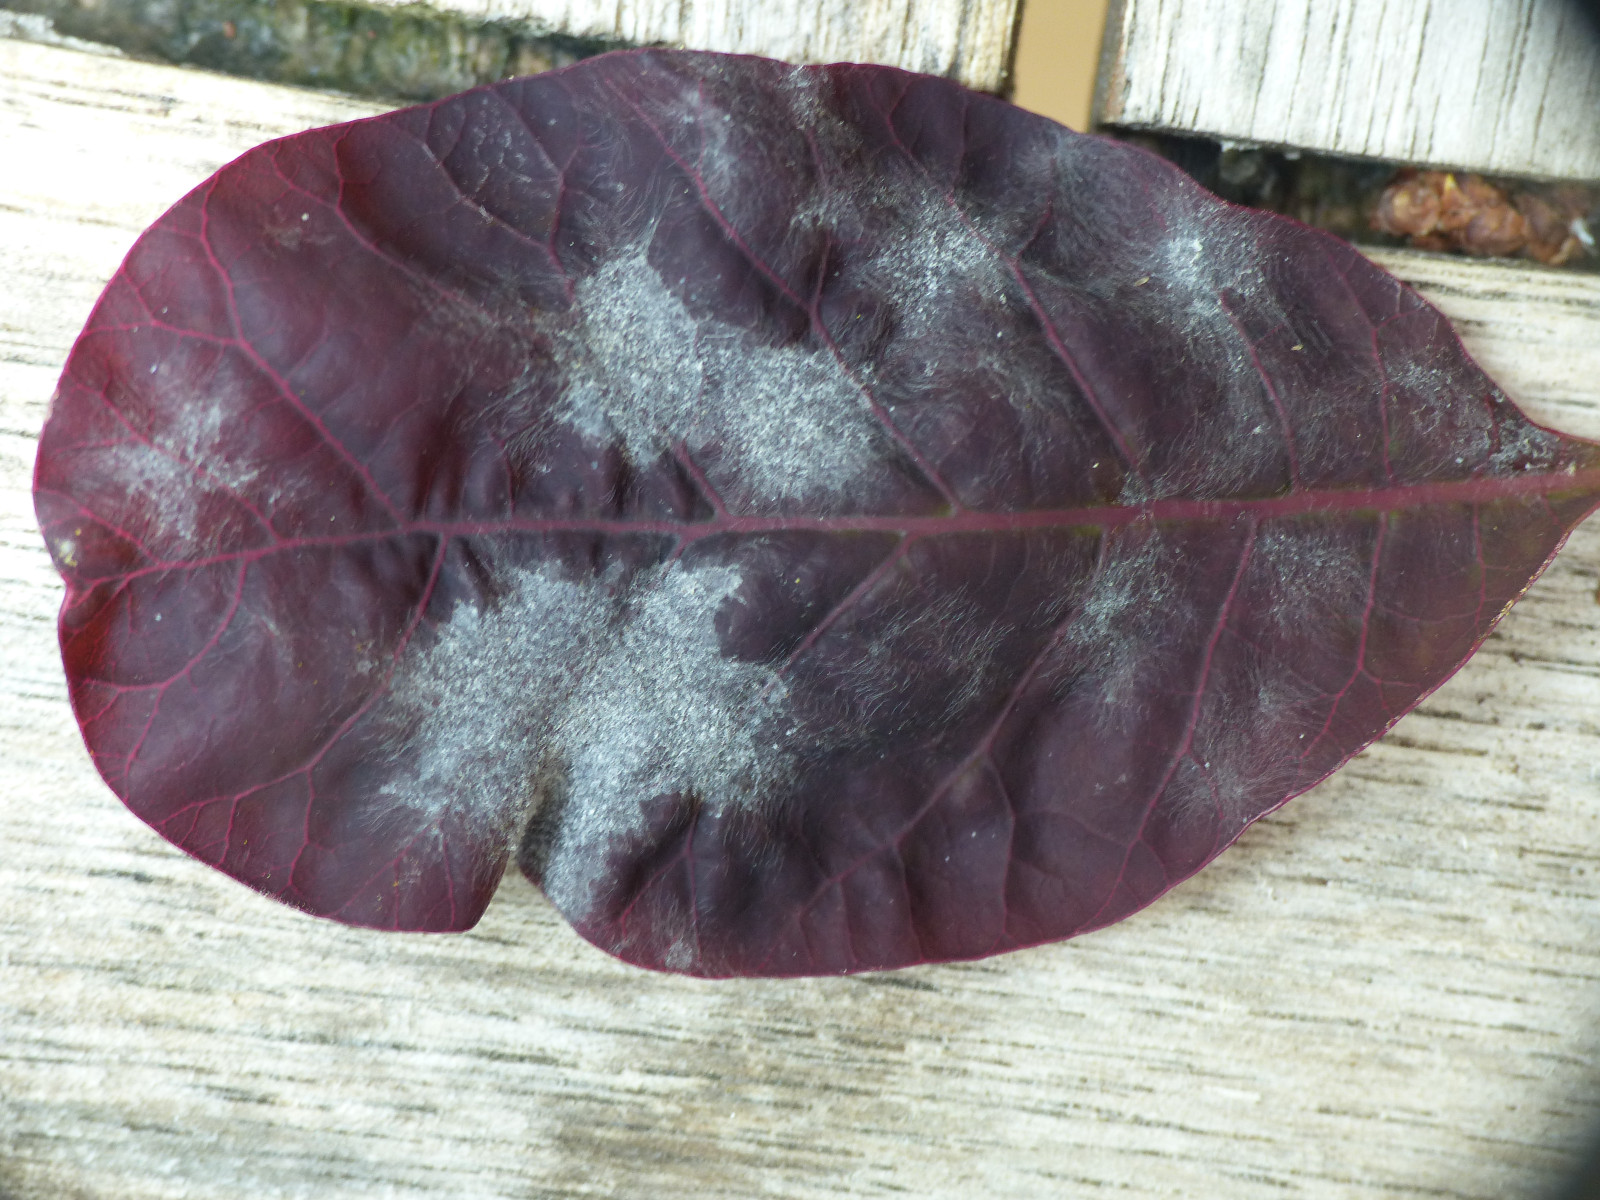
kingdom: Fungi
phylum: Ascomycota
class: Leotiomycetes
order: Helotiales
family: Erysiphaceae
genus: Podosphaera
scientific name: Podosphaera pannosa
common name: Rose mildew
